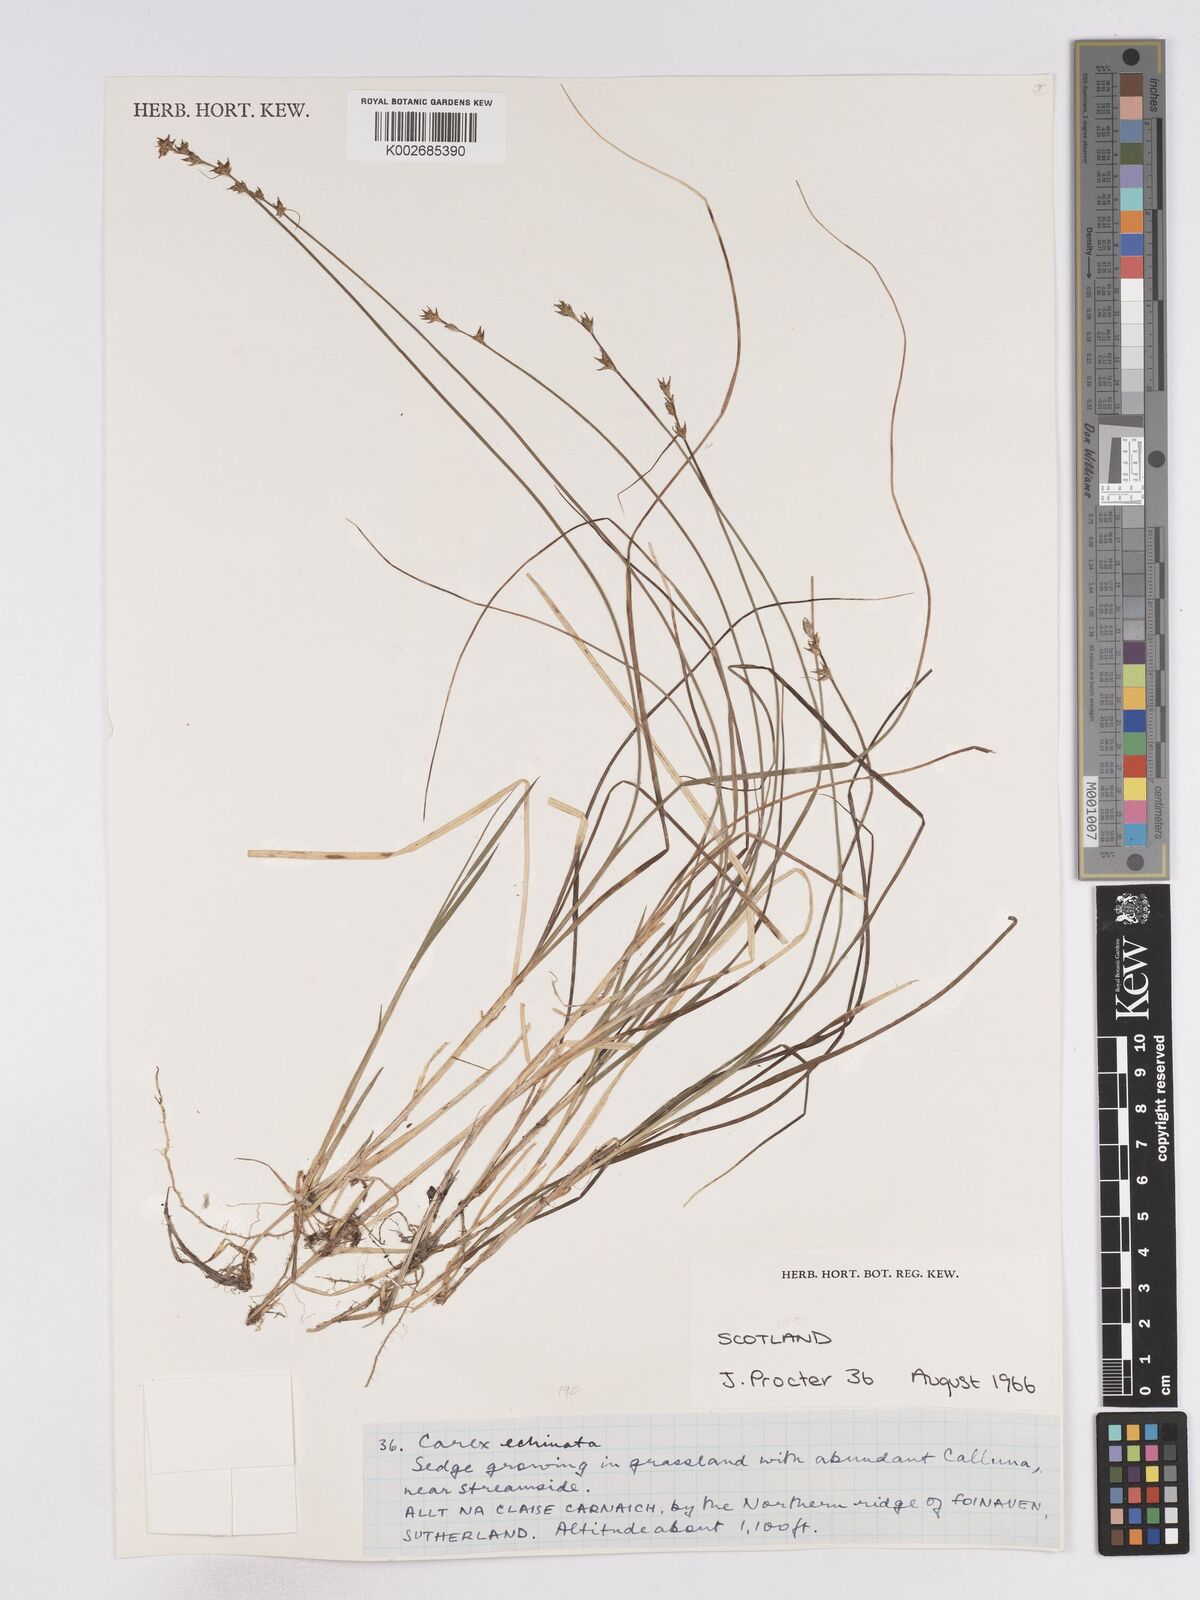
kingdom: Plantae
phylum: Tracheophyta
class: Liliopsida
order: Poales
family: Cyperaceae
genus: Carex
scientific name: Carex
